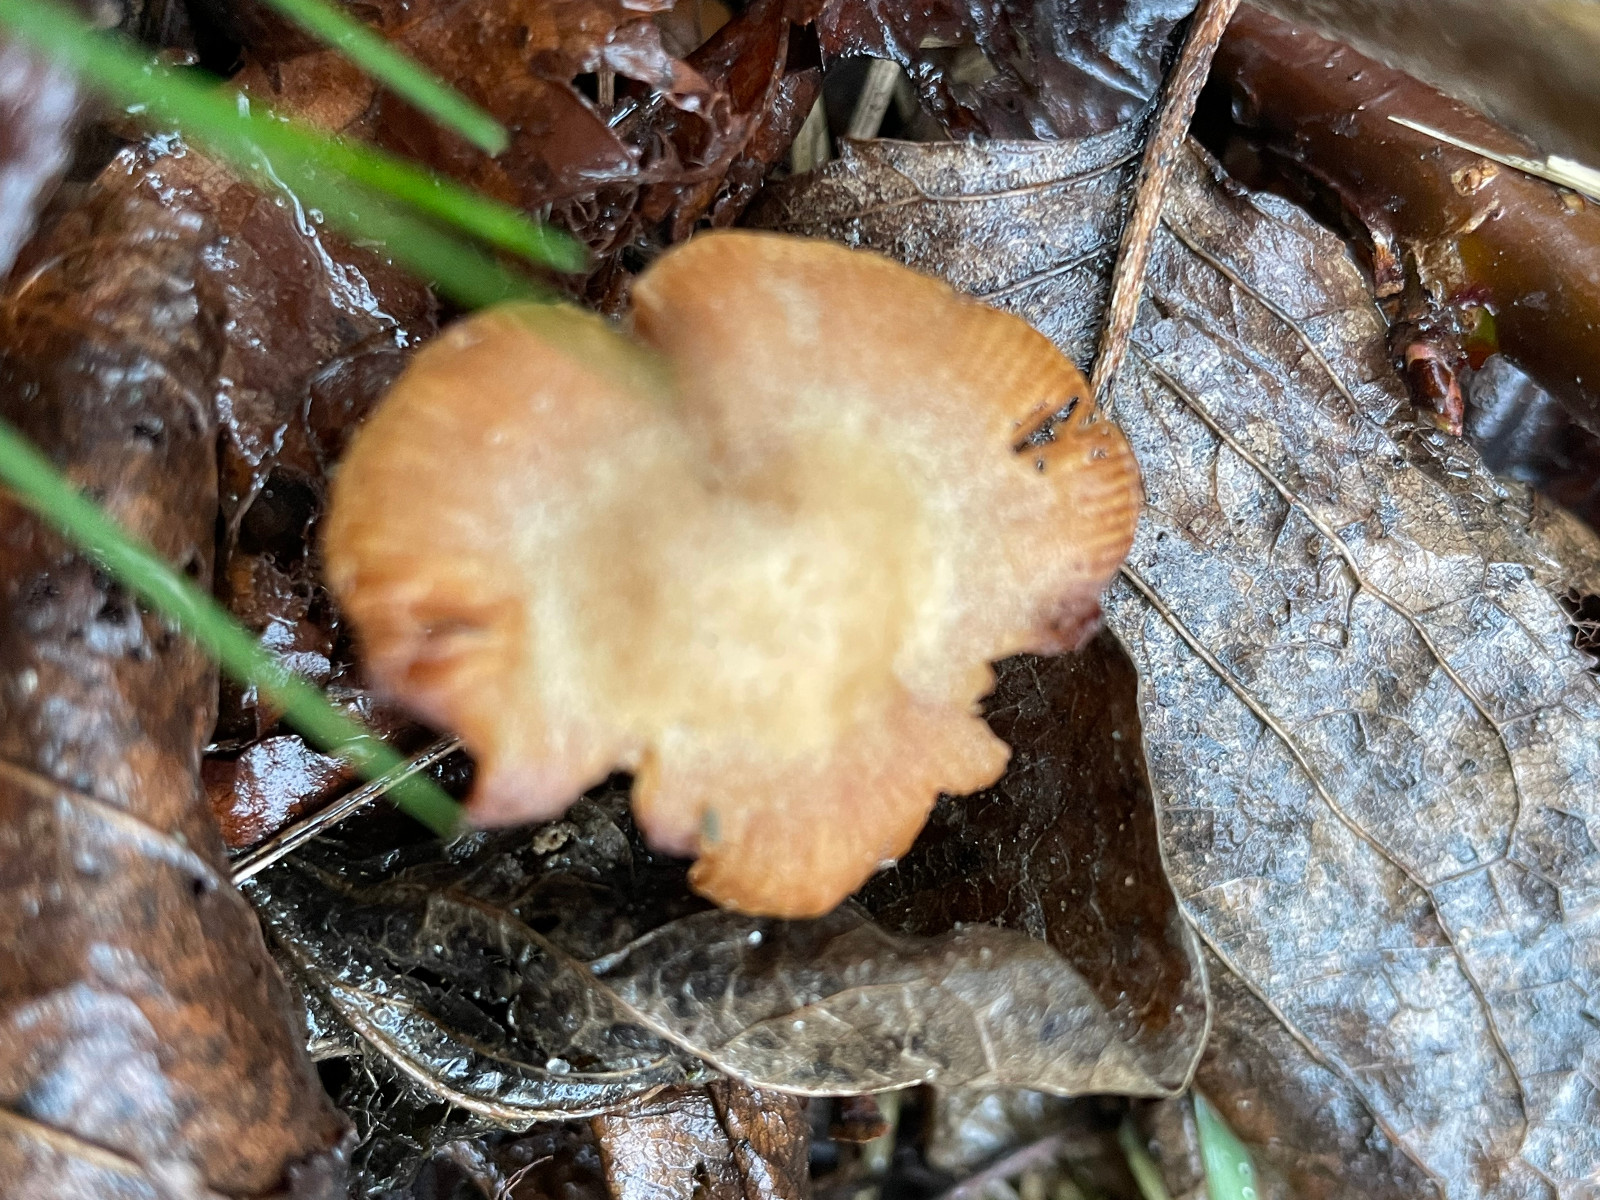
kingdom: Fungi
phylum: Basidiomycota
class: Agaricomycetes
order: Agaricales
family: Tubariaceae
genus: Tubaria
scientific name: Tubaria furfuracea
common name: kliddet fnughat
